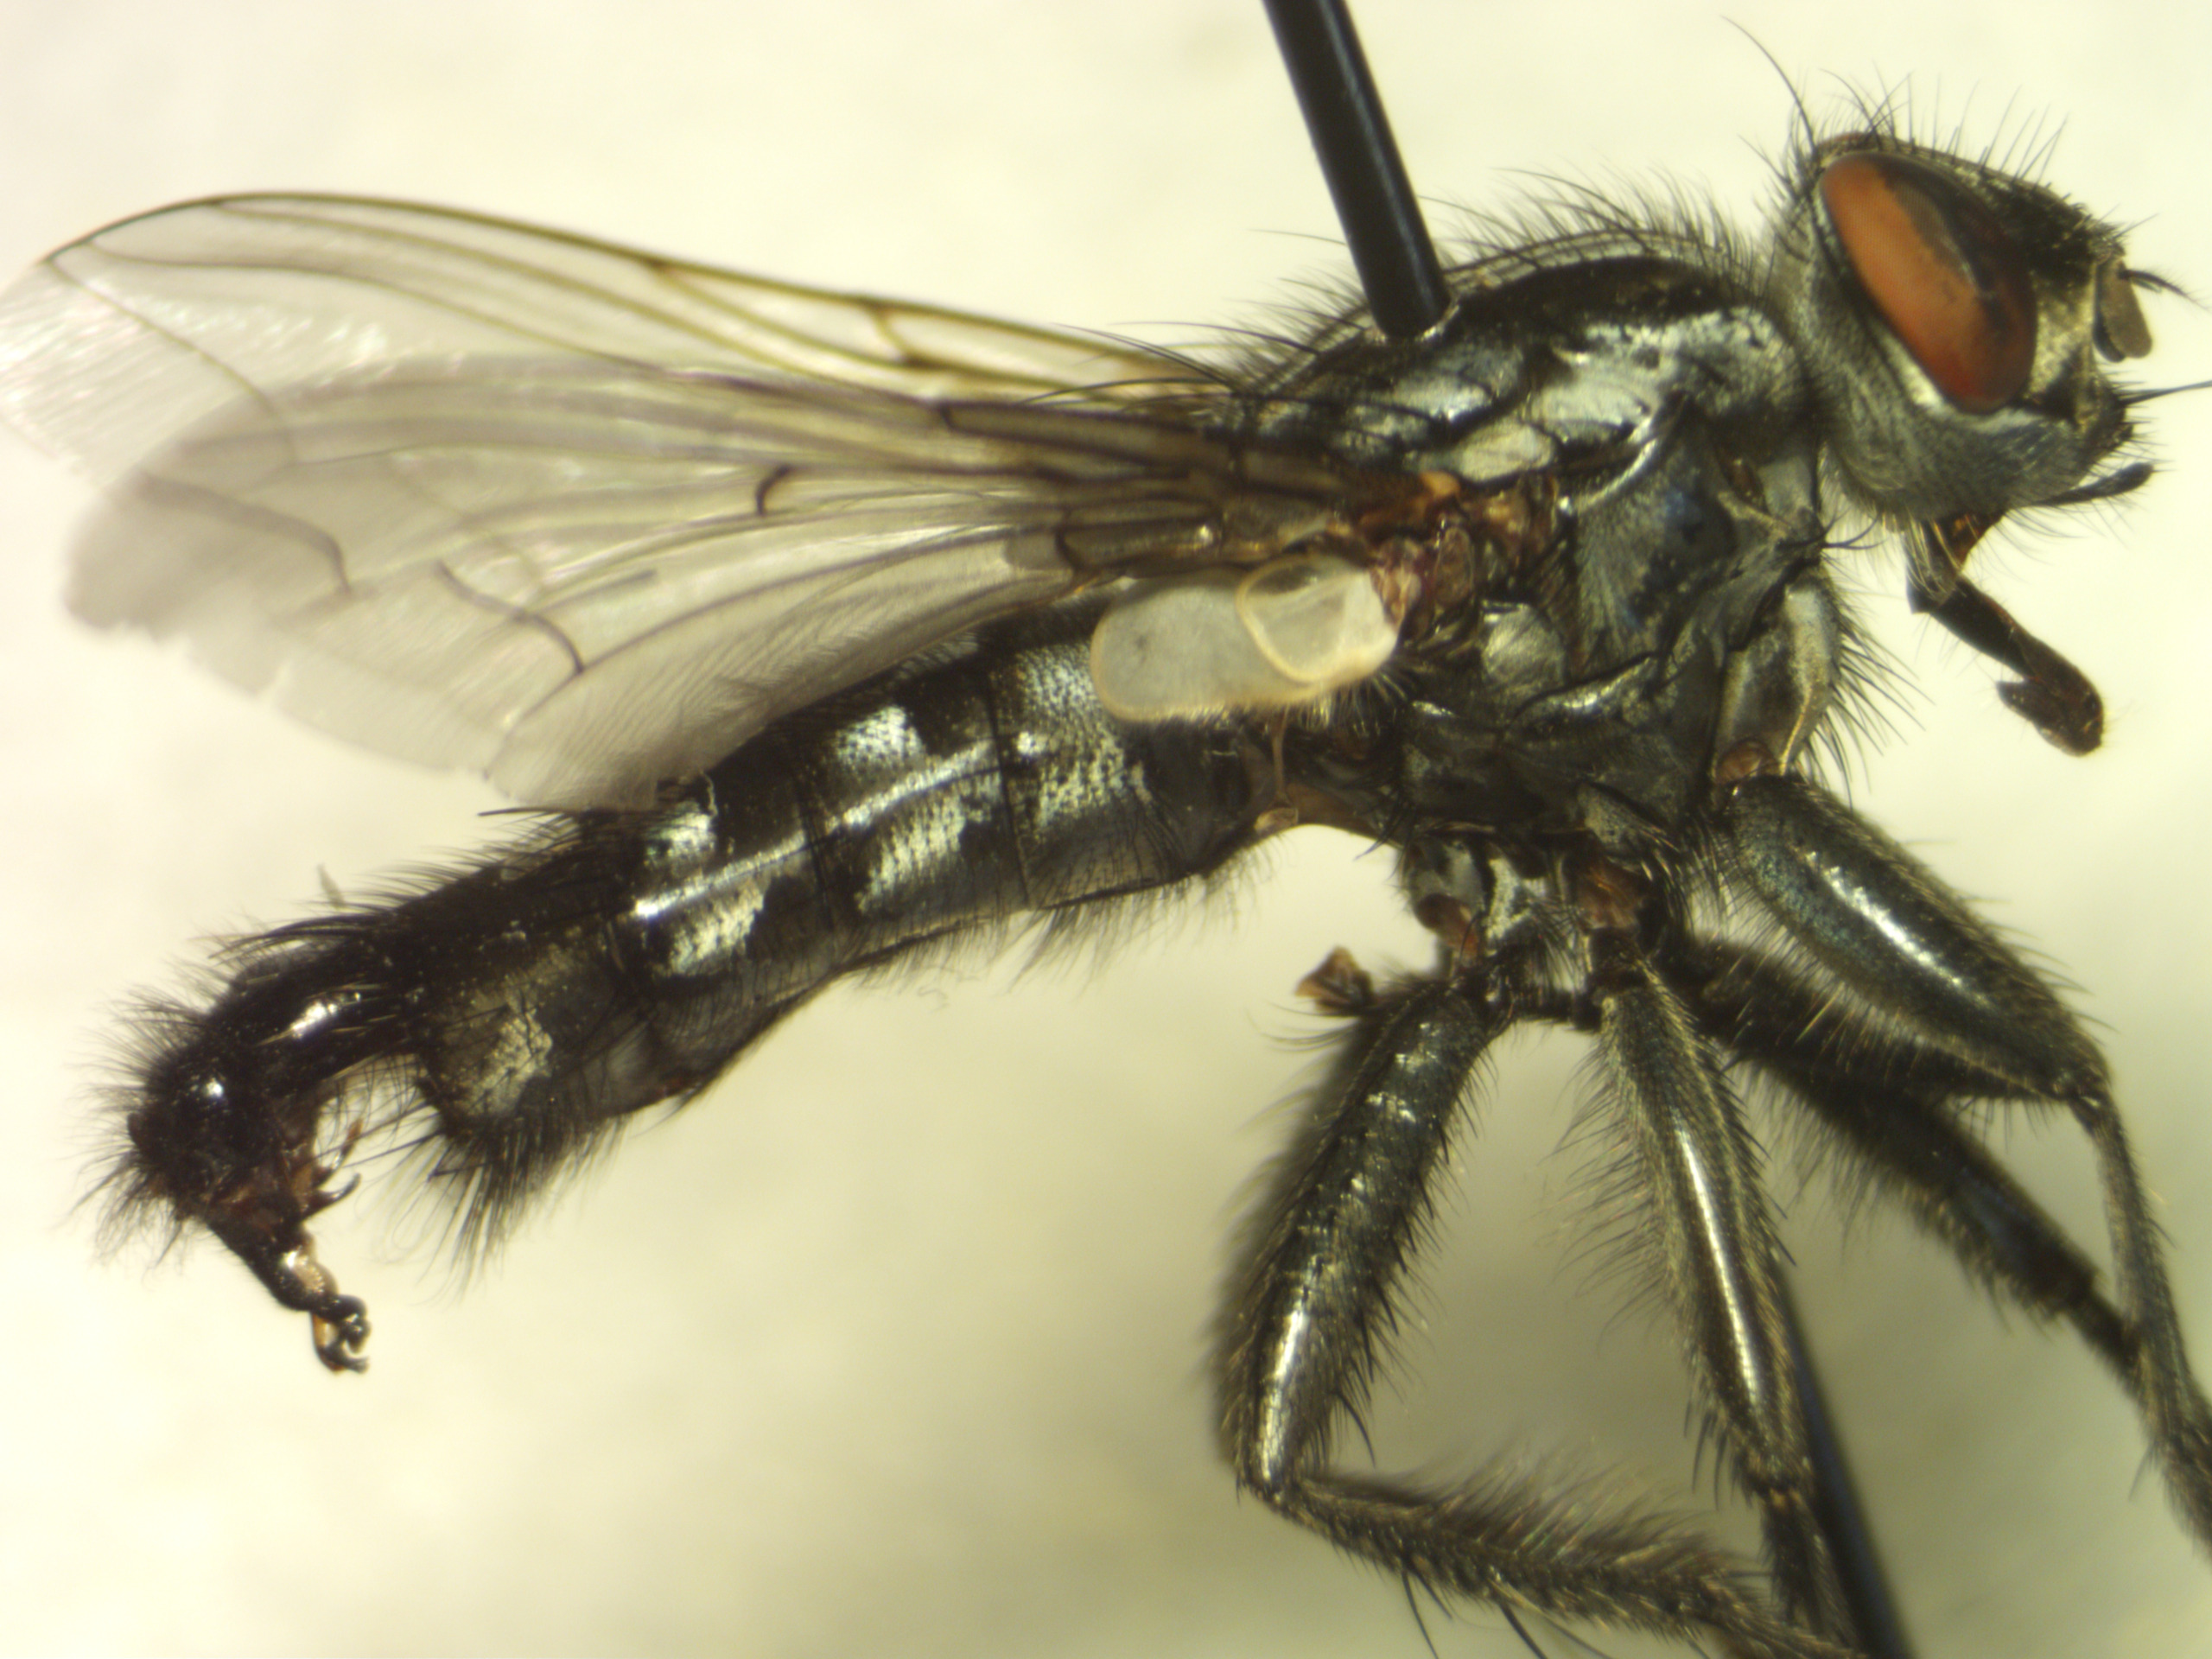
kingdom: Animalia
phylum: Arthropoda
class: Insecta
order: Diptera
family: Sarcophagidae
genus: Sarcophaga
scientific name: Sarcophaga lehmanni
